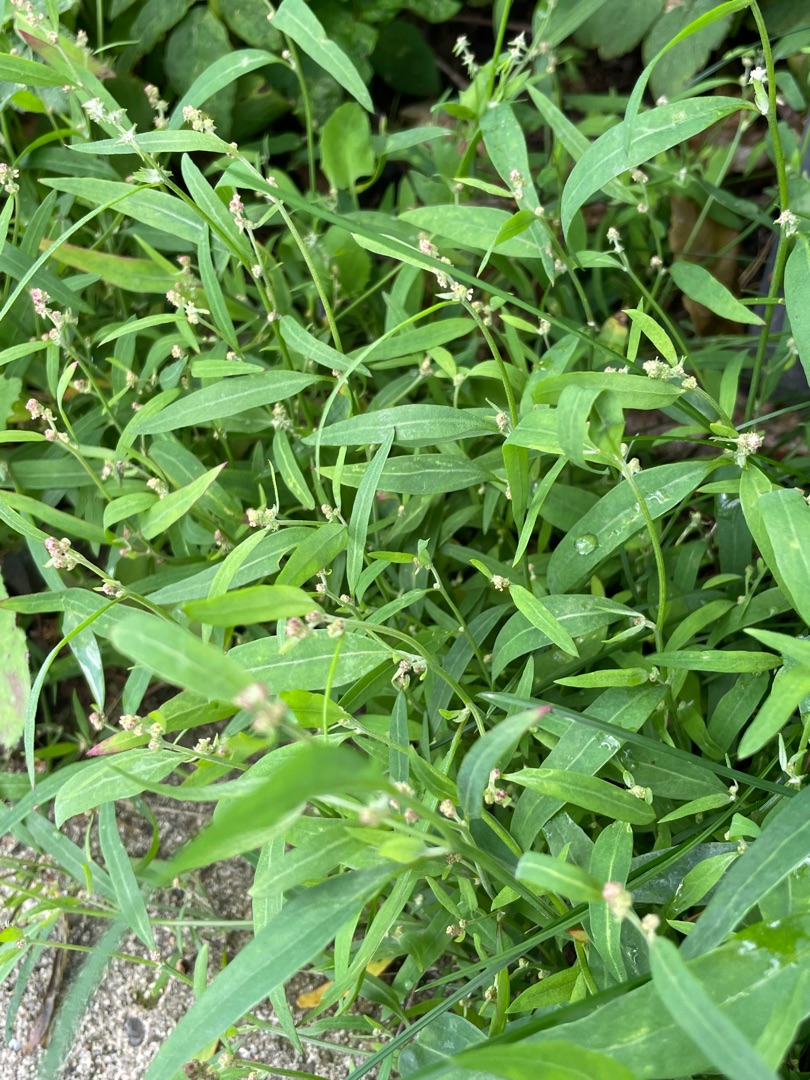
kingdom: Plantae
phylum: Tracheophyta
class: Magnoliopsida
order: Caryophyllales
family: Amaranthaceae
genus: Atriplex
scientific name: Atriplex patula
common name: Svine-mælde
